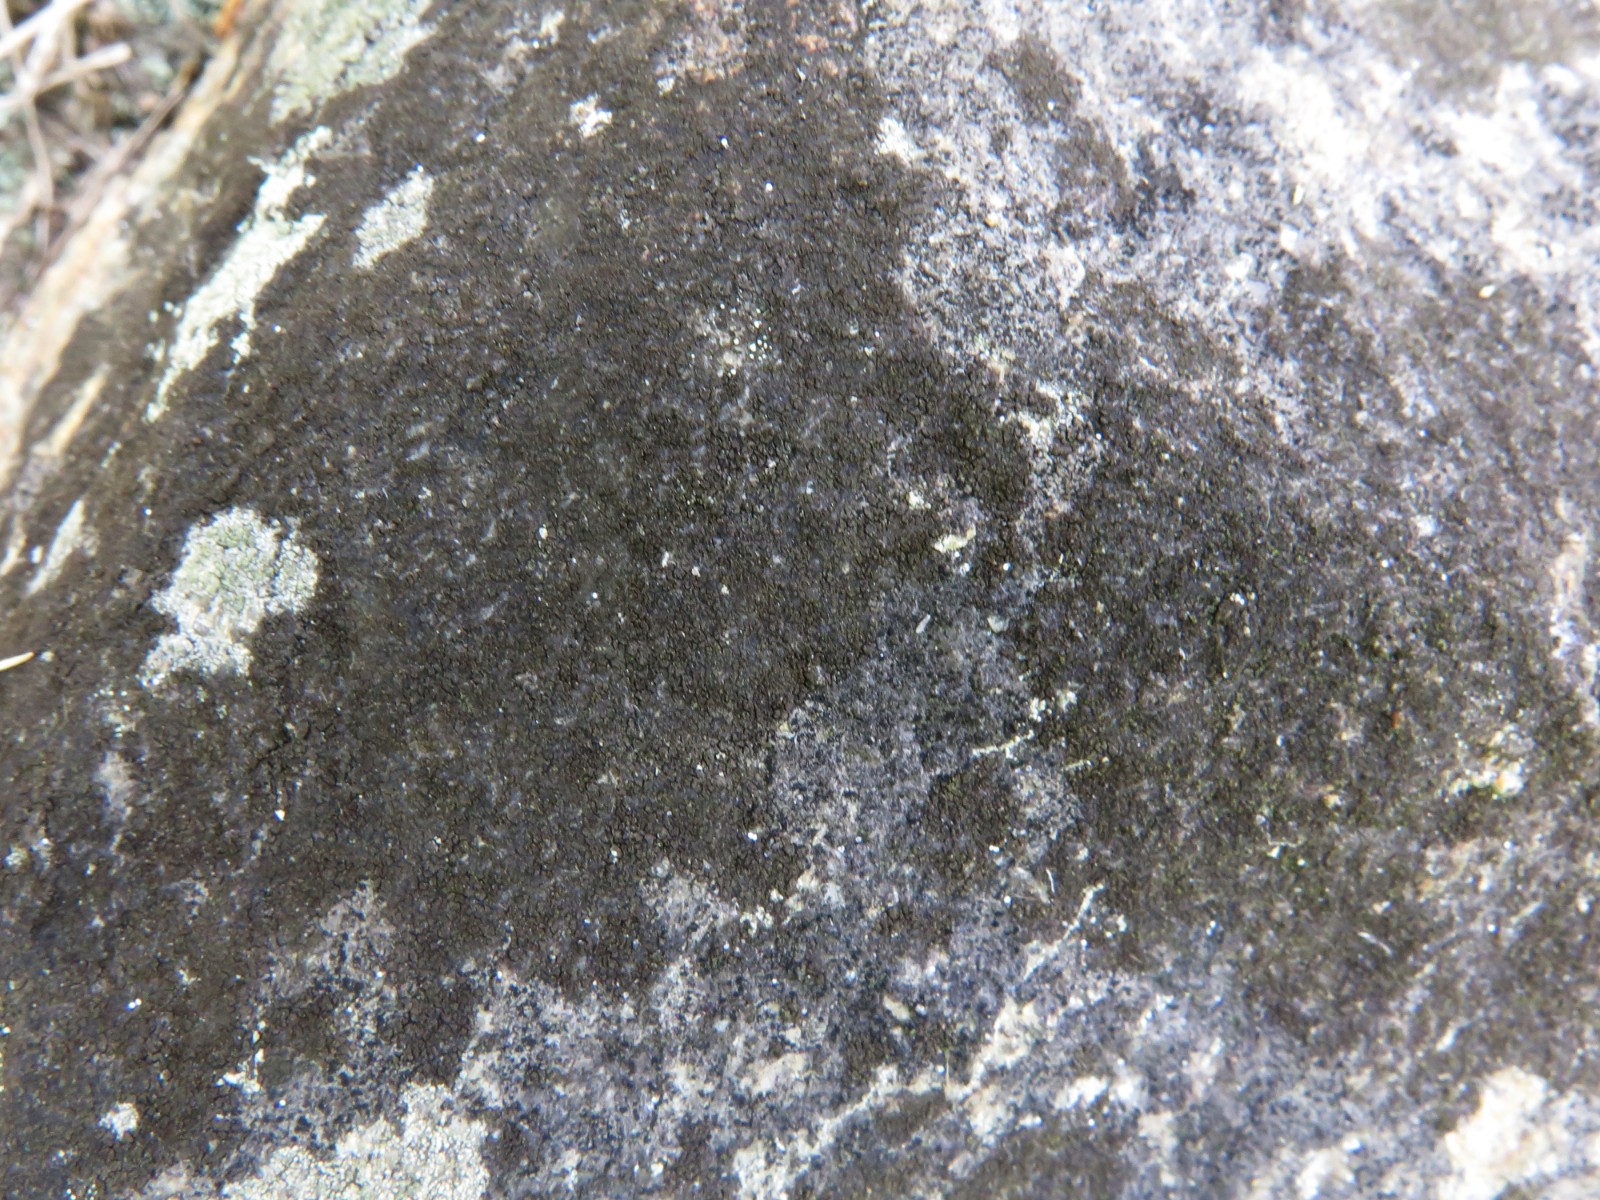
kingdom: Fungi
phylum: Ascomycota
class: Eurotiomycetes
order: Verrucariales
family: Verrucariaceae
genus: Verrucaria
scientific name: Verrucaria nigrescens
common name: sortbrun vortelav
